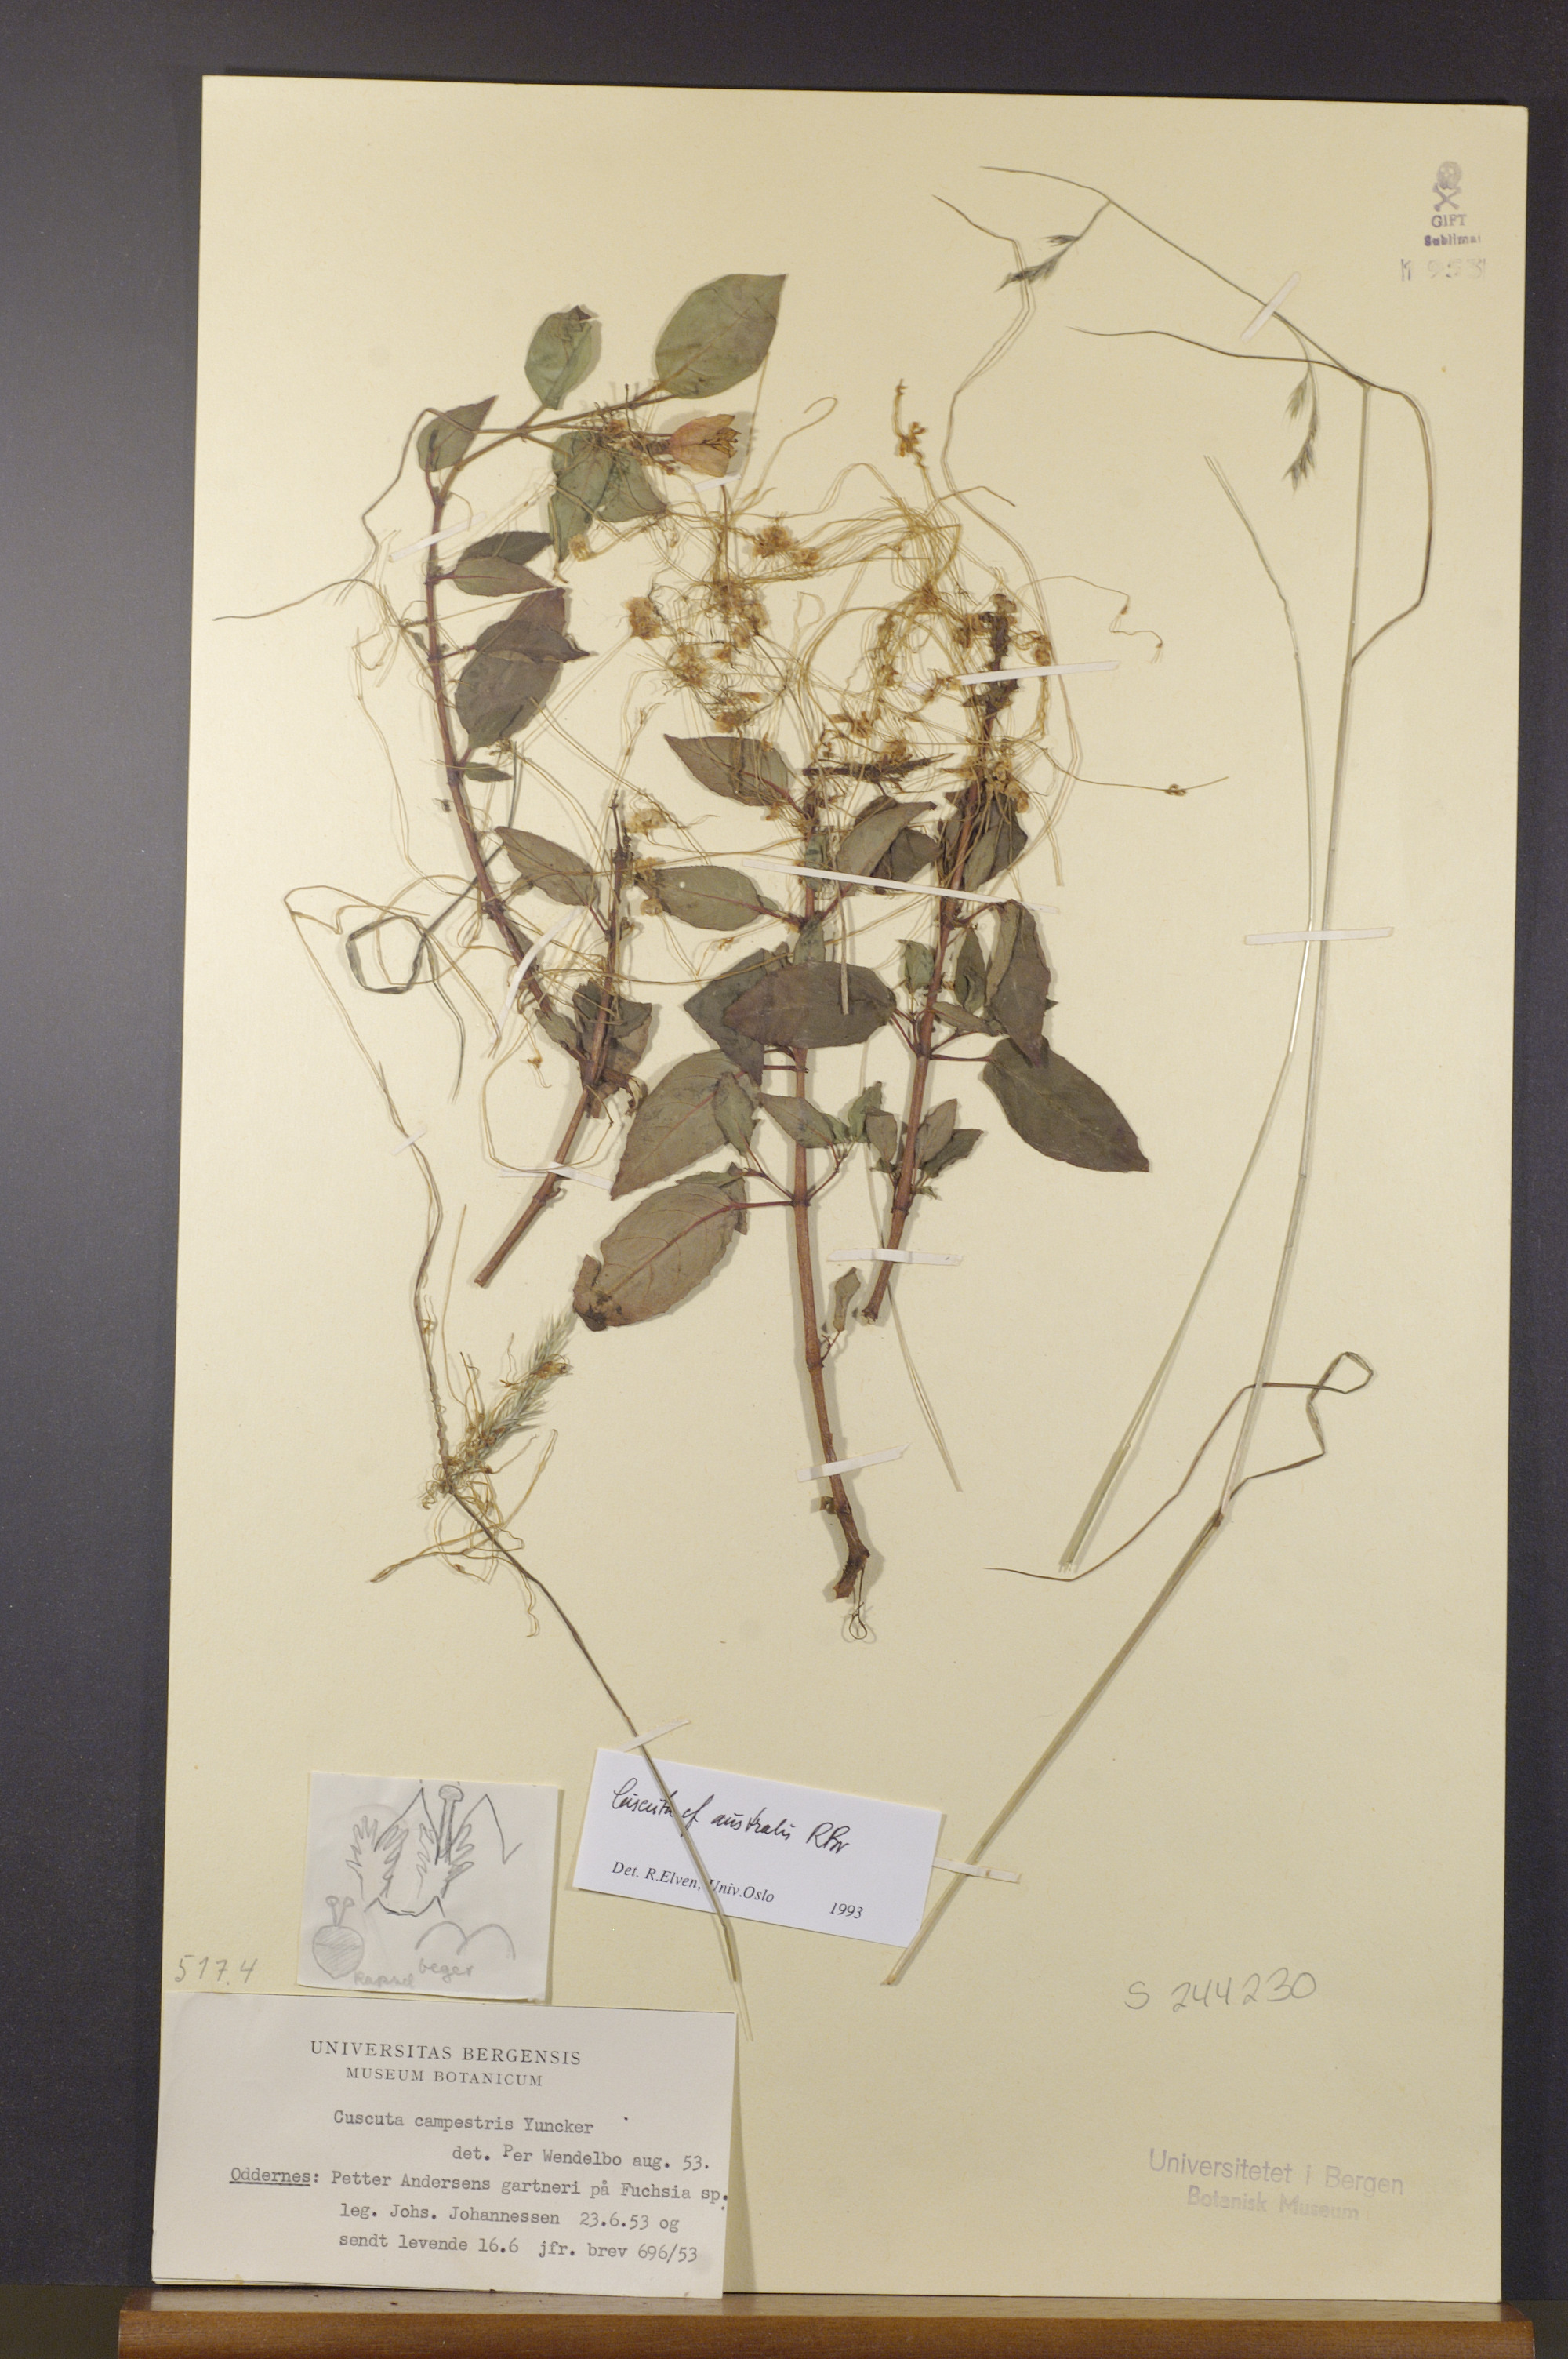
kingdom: Plantae
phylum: Tracheophyta
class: Magnoliopsida
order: Solanales
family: Convolvulaceae
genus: Cuscuta
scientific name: Cuscuta australis
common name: Australian dodder
